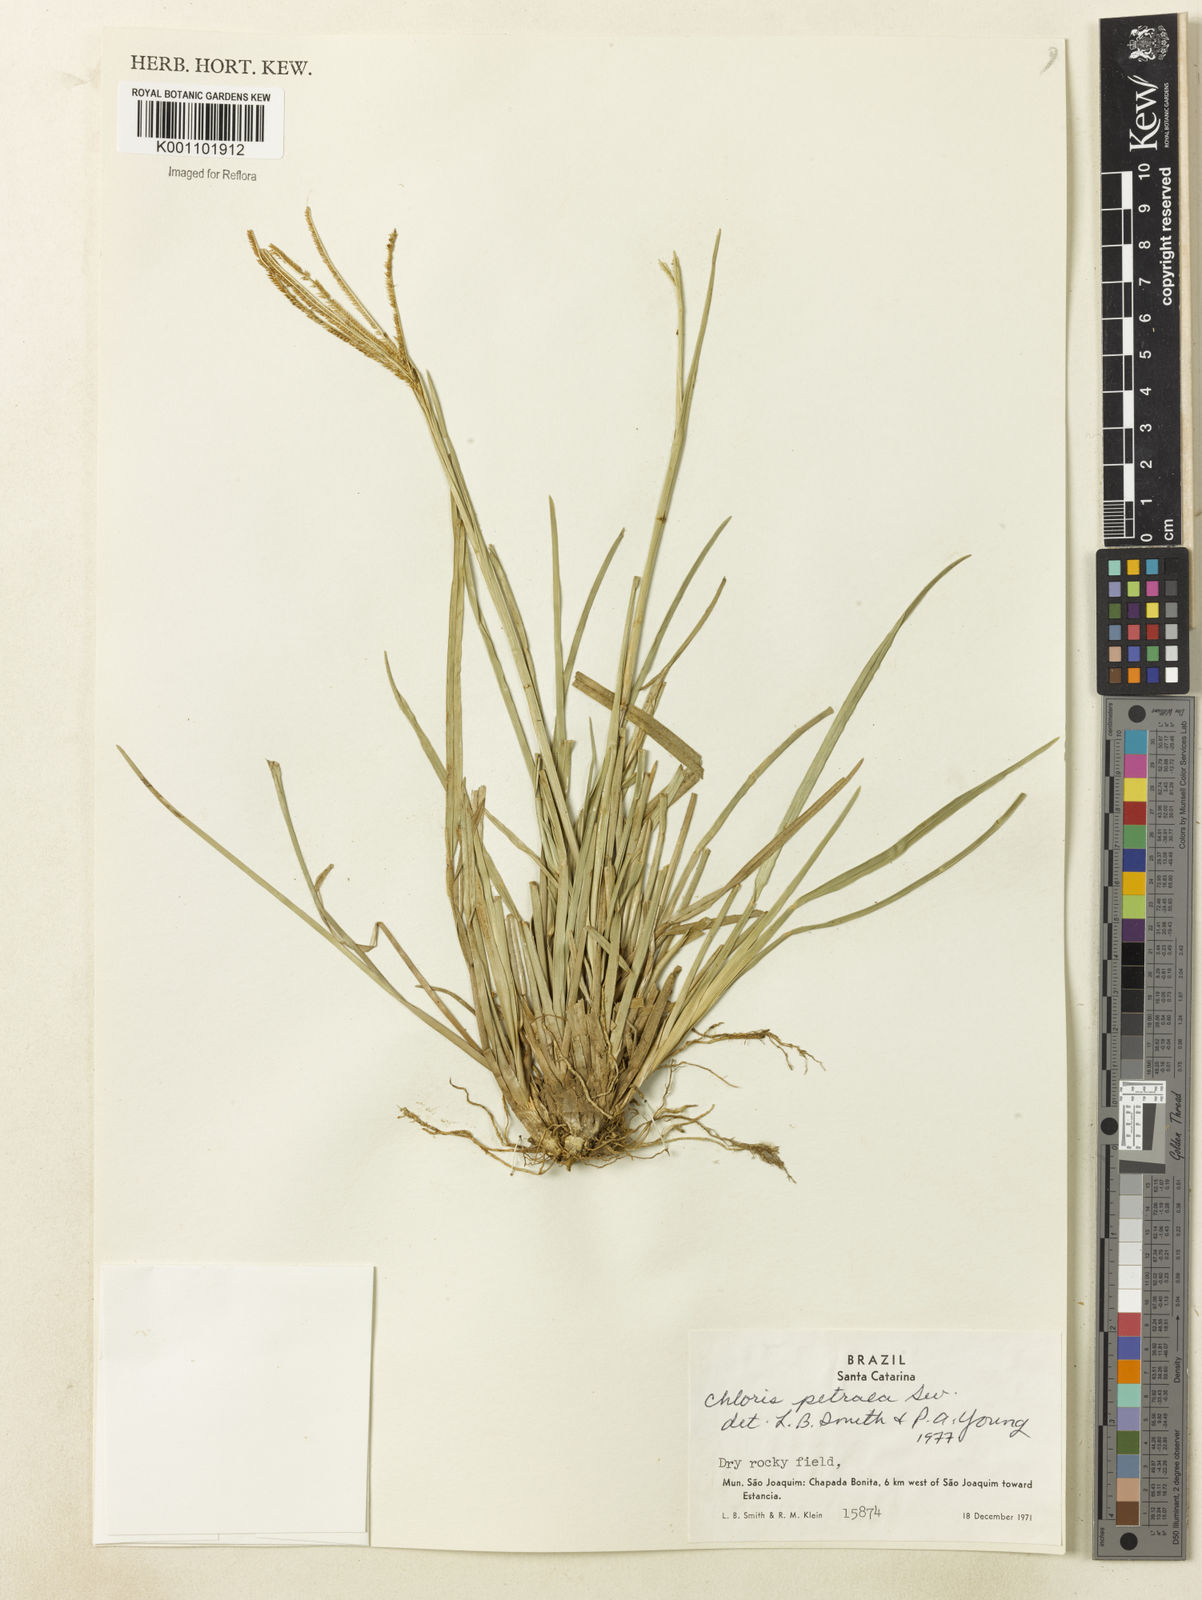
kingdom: Plantae
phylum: Tracheophyta
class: Liliopsida
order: Poales
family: Poaceae
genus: Eustachys
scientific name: Eustachys uliginosa
